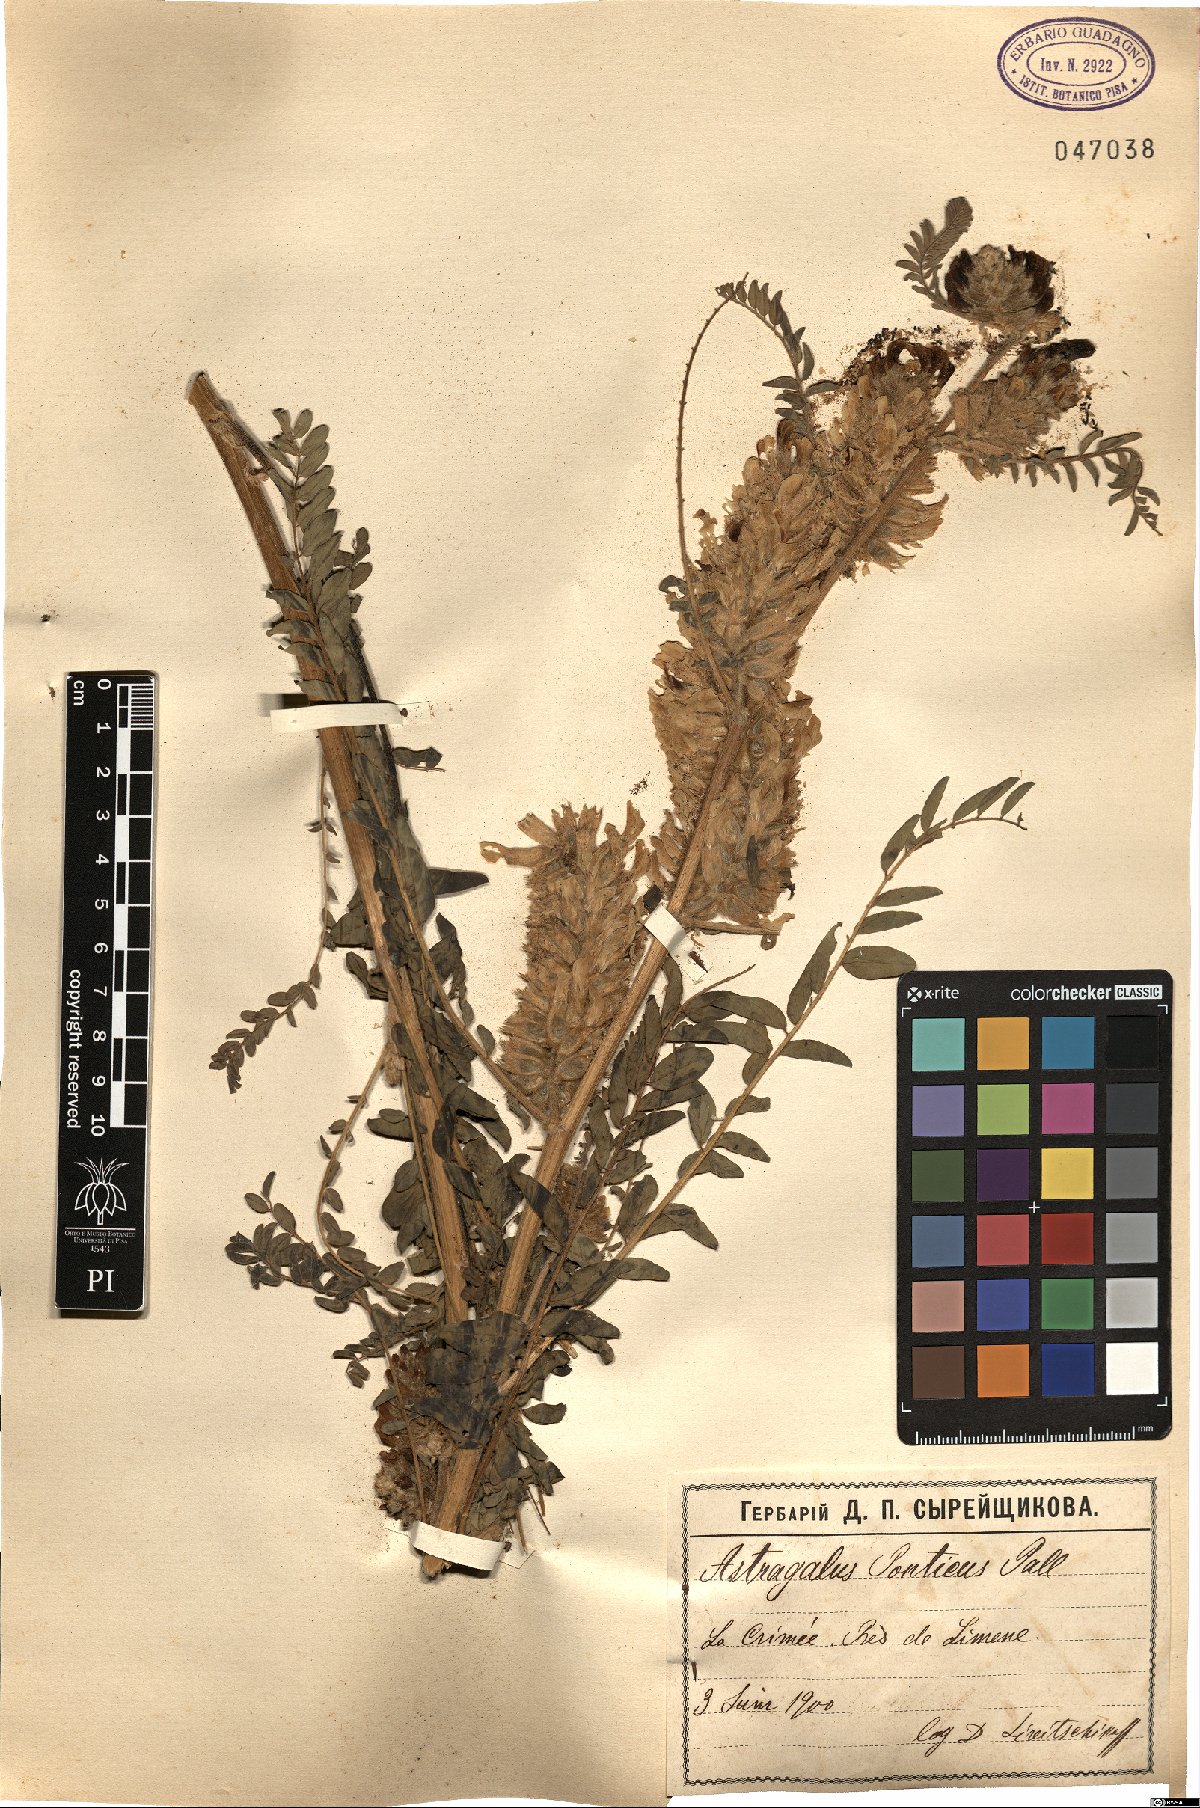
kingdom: Plantae
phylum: Tracheophyta
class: Magnoliopsida
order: Fabales
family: Fabaceae
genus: Astragalus
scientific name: Astragalus ponticus
